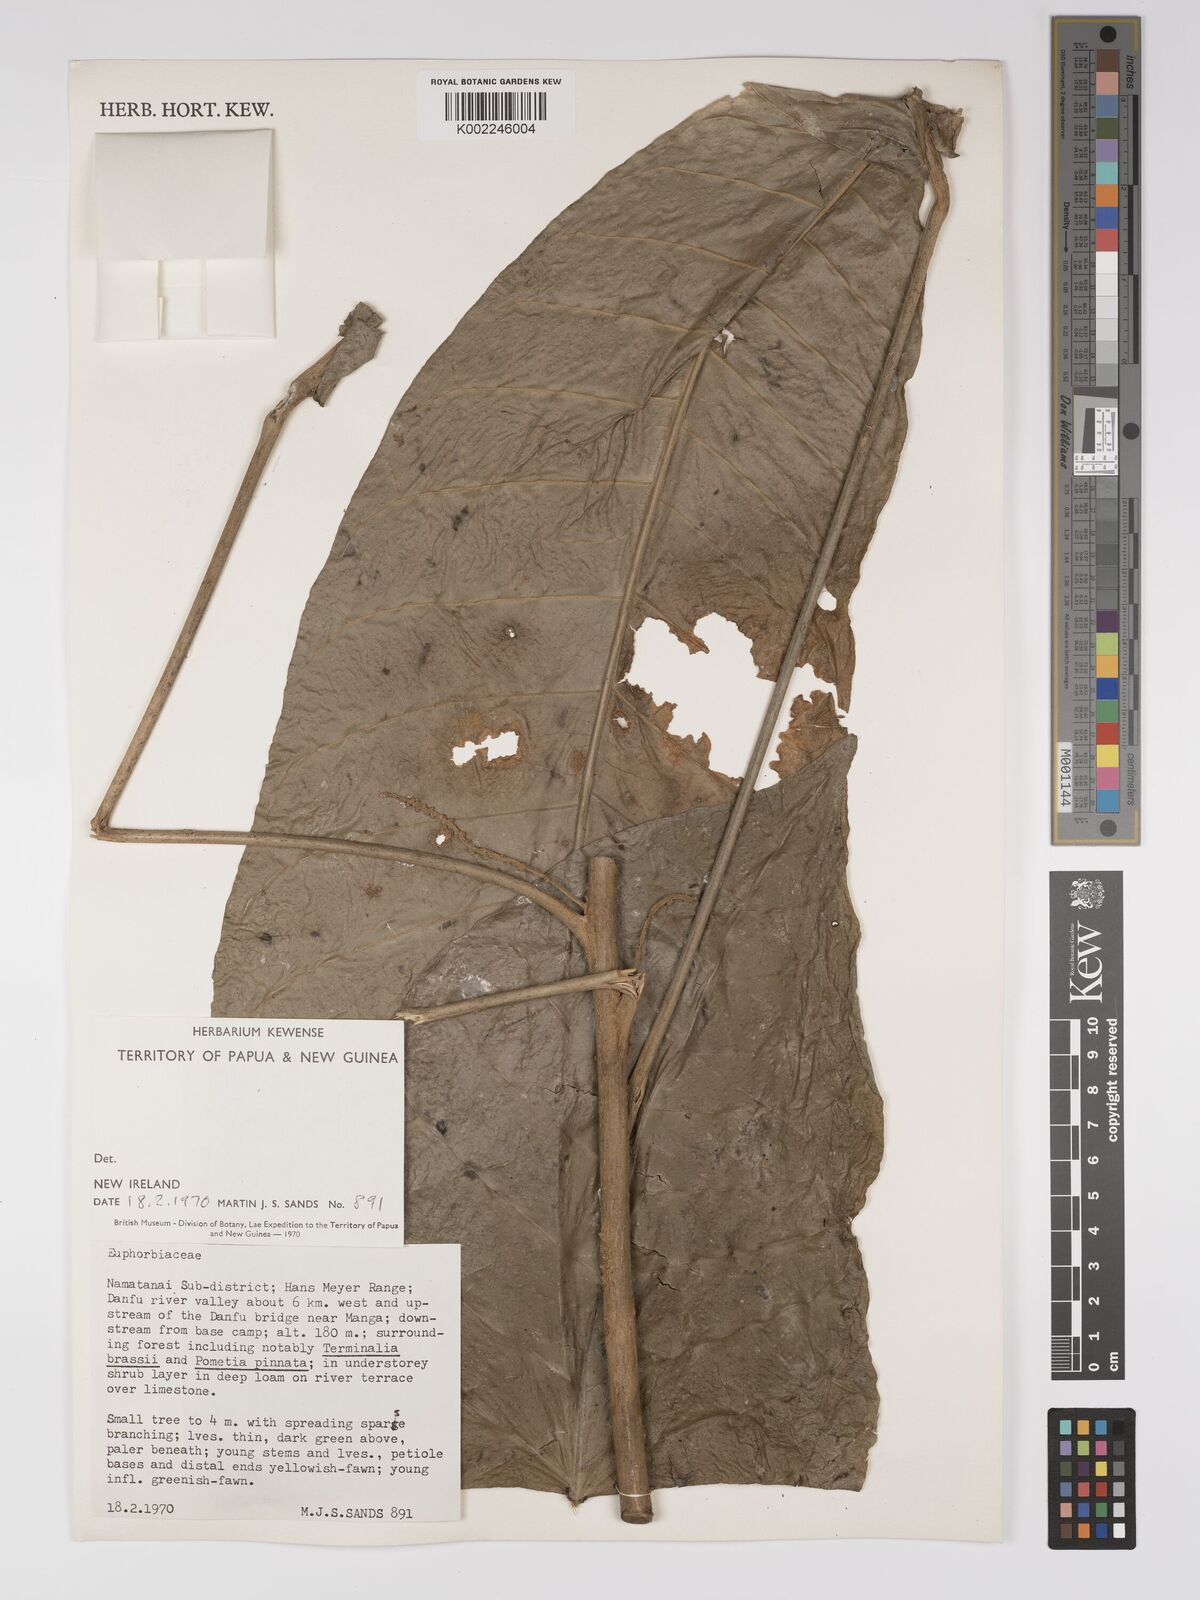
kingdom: Plantae
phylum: Tracheophyta
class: Magnoliopsida
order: Malpighiales
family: Euphorbiaceae
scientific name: Euphorbiaceae
